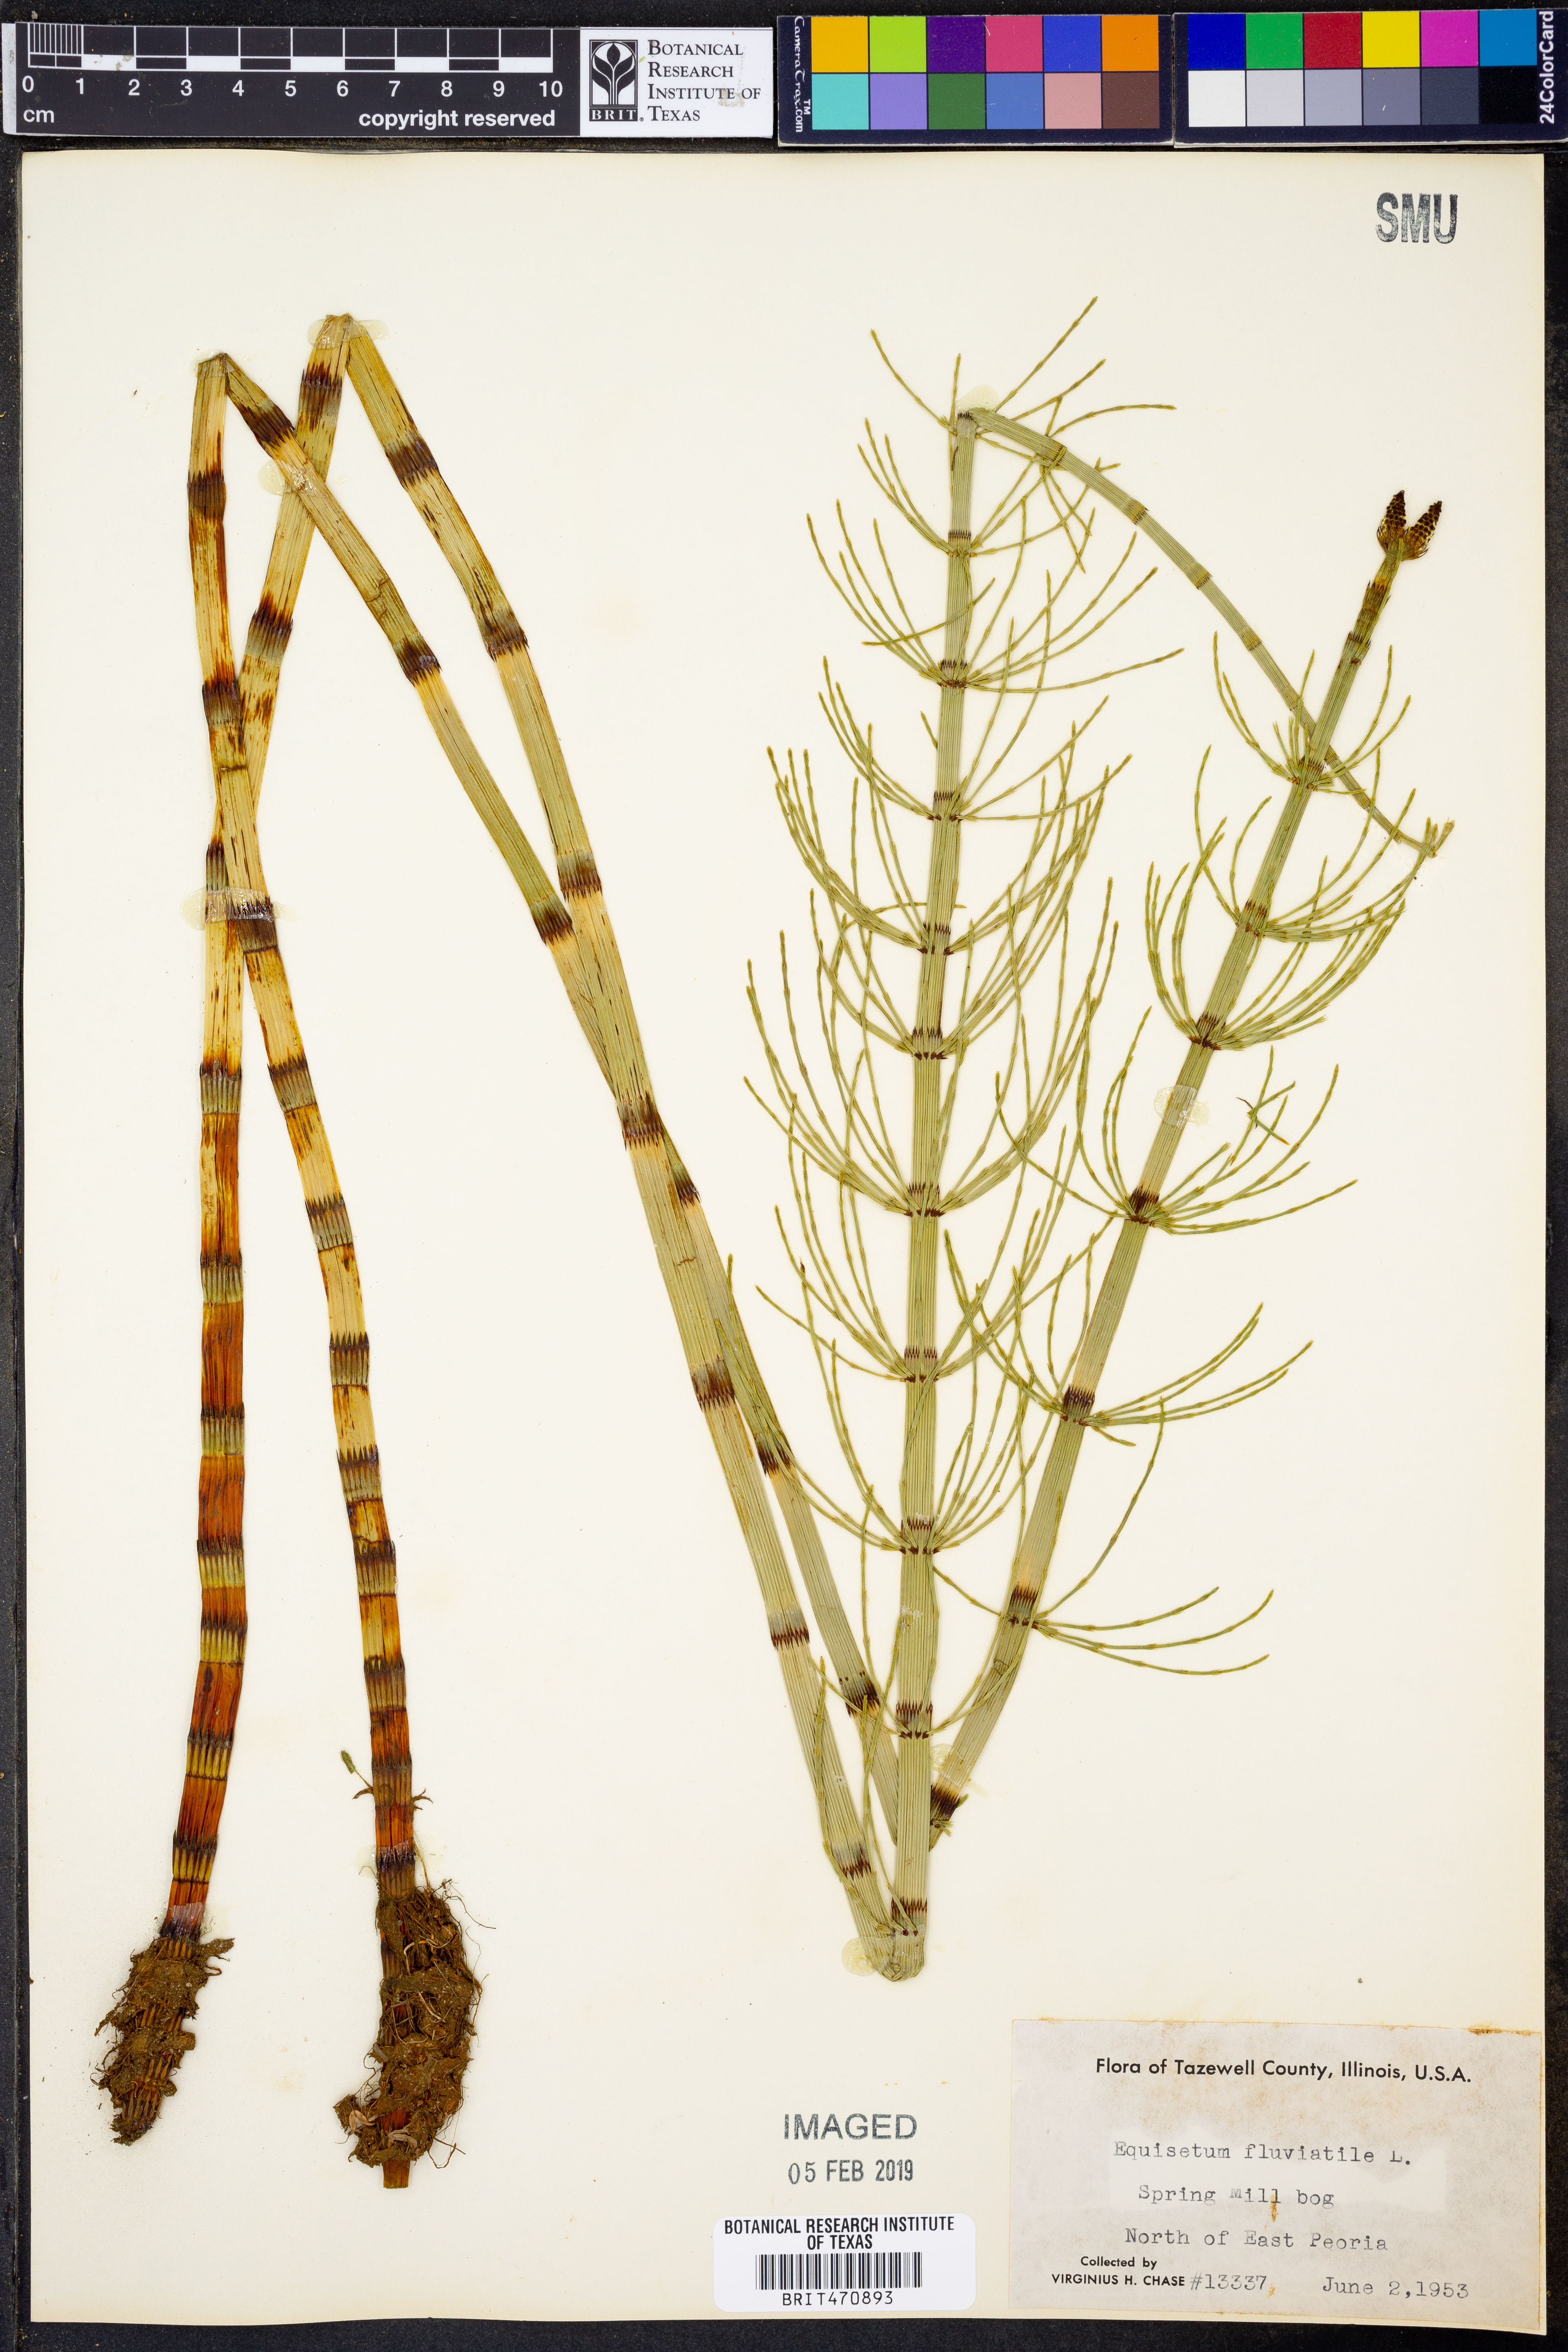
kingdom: Plantae
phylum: Tracheophyta
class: Polypodiopsida
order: Equisetales
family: Equisetaceae
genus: Equisetum
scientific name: Equisetum fluviatile
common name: Water horsetail
